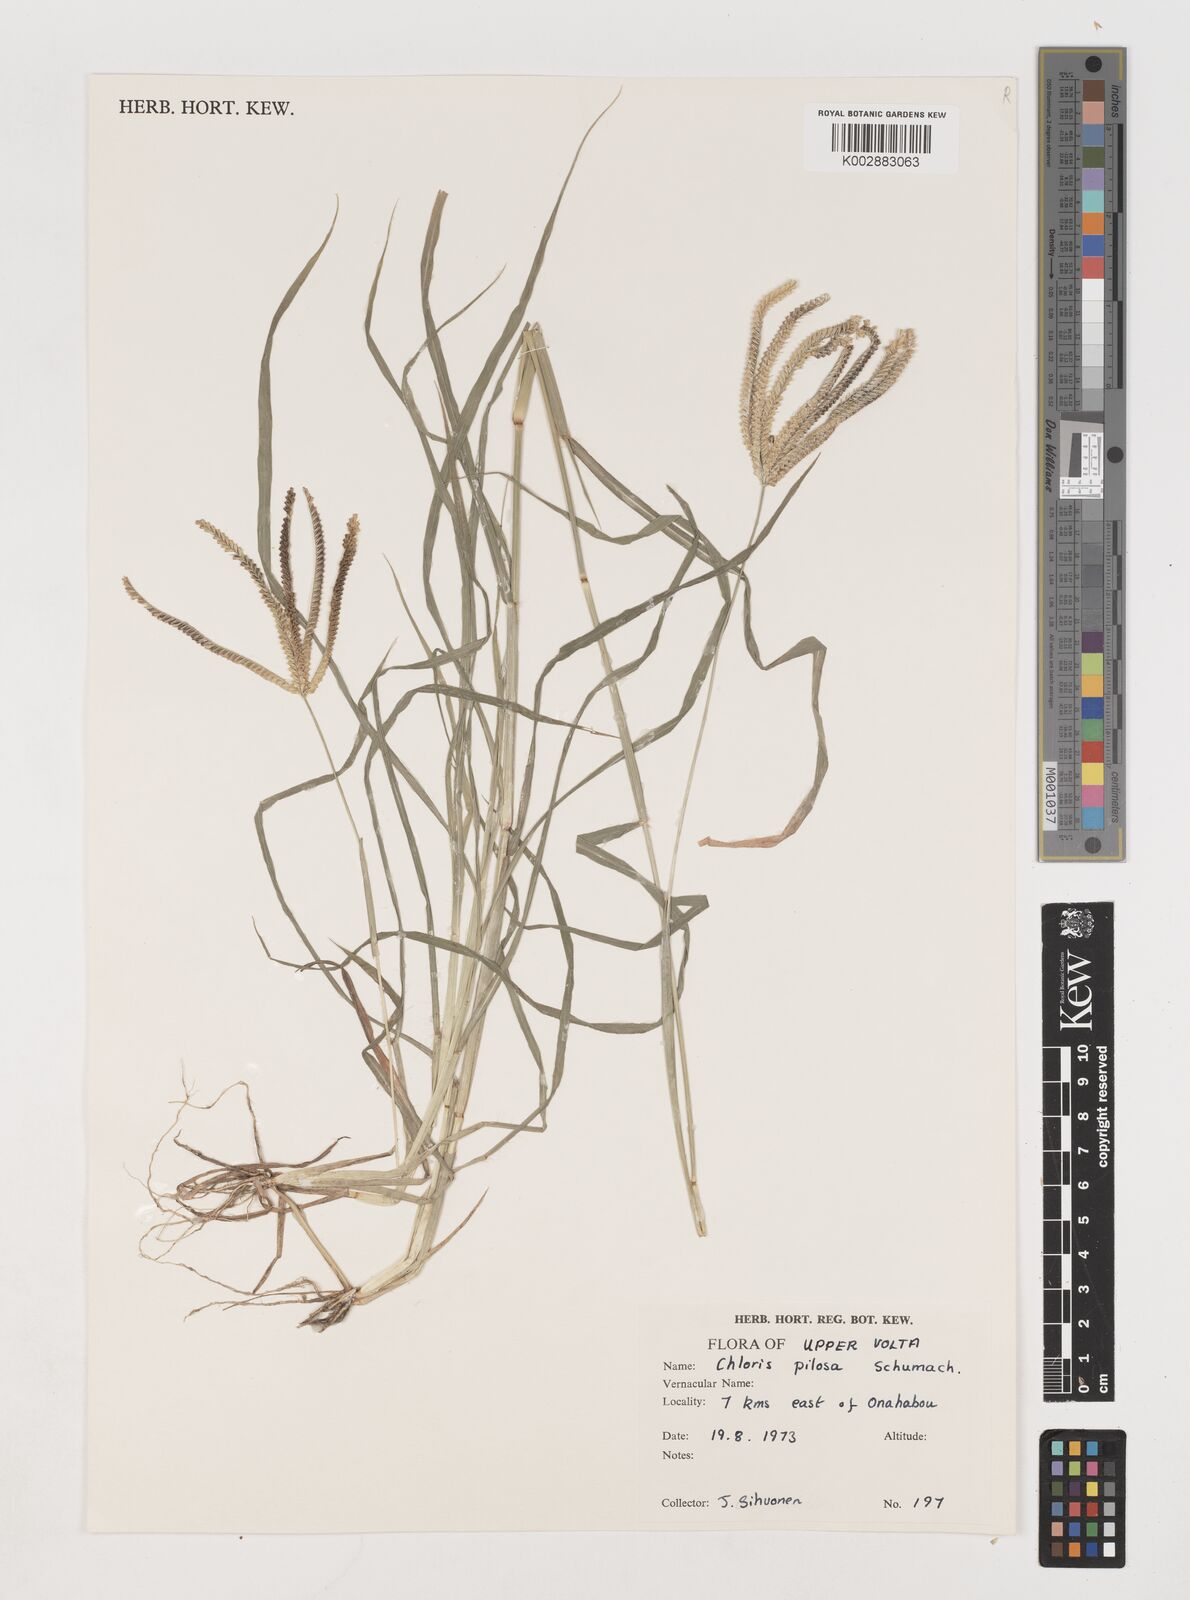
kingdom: Plantae
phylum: Tracheophyta
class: Liliopsida
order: Poales
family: Poaceae
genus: Chloris
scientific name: Chloris pilosa
